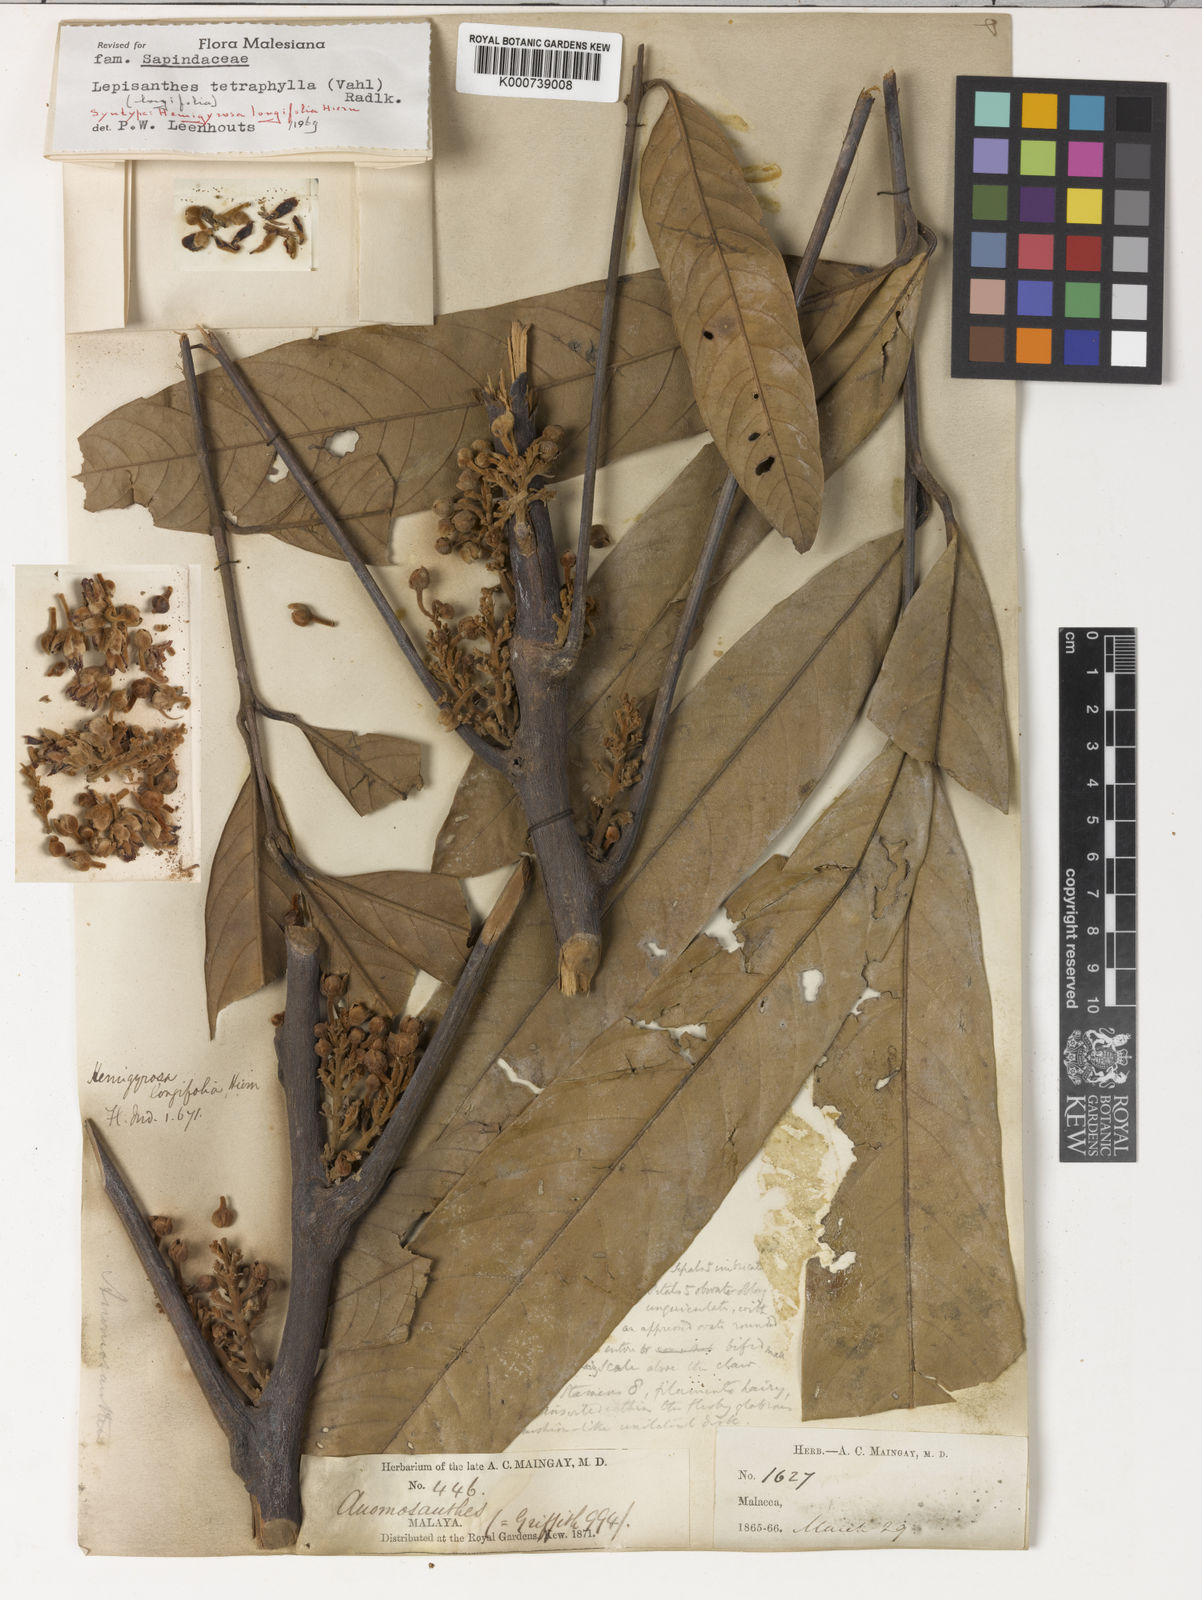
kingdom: Plantae
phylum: Tracheophyta
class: Magnoliopsida
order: Sapindales
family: Sapindaceae
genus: Lepisanthes
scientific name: Lepisanthes tetraphylla
